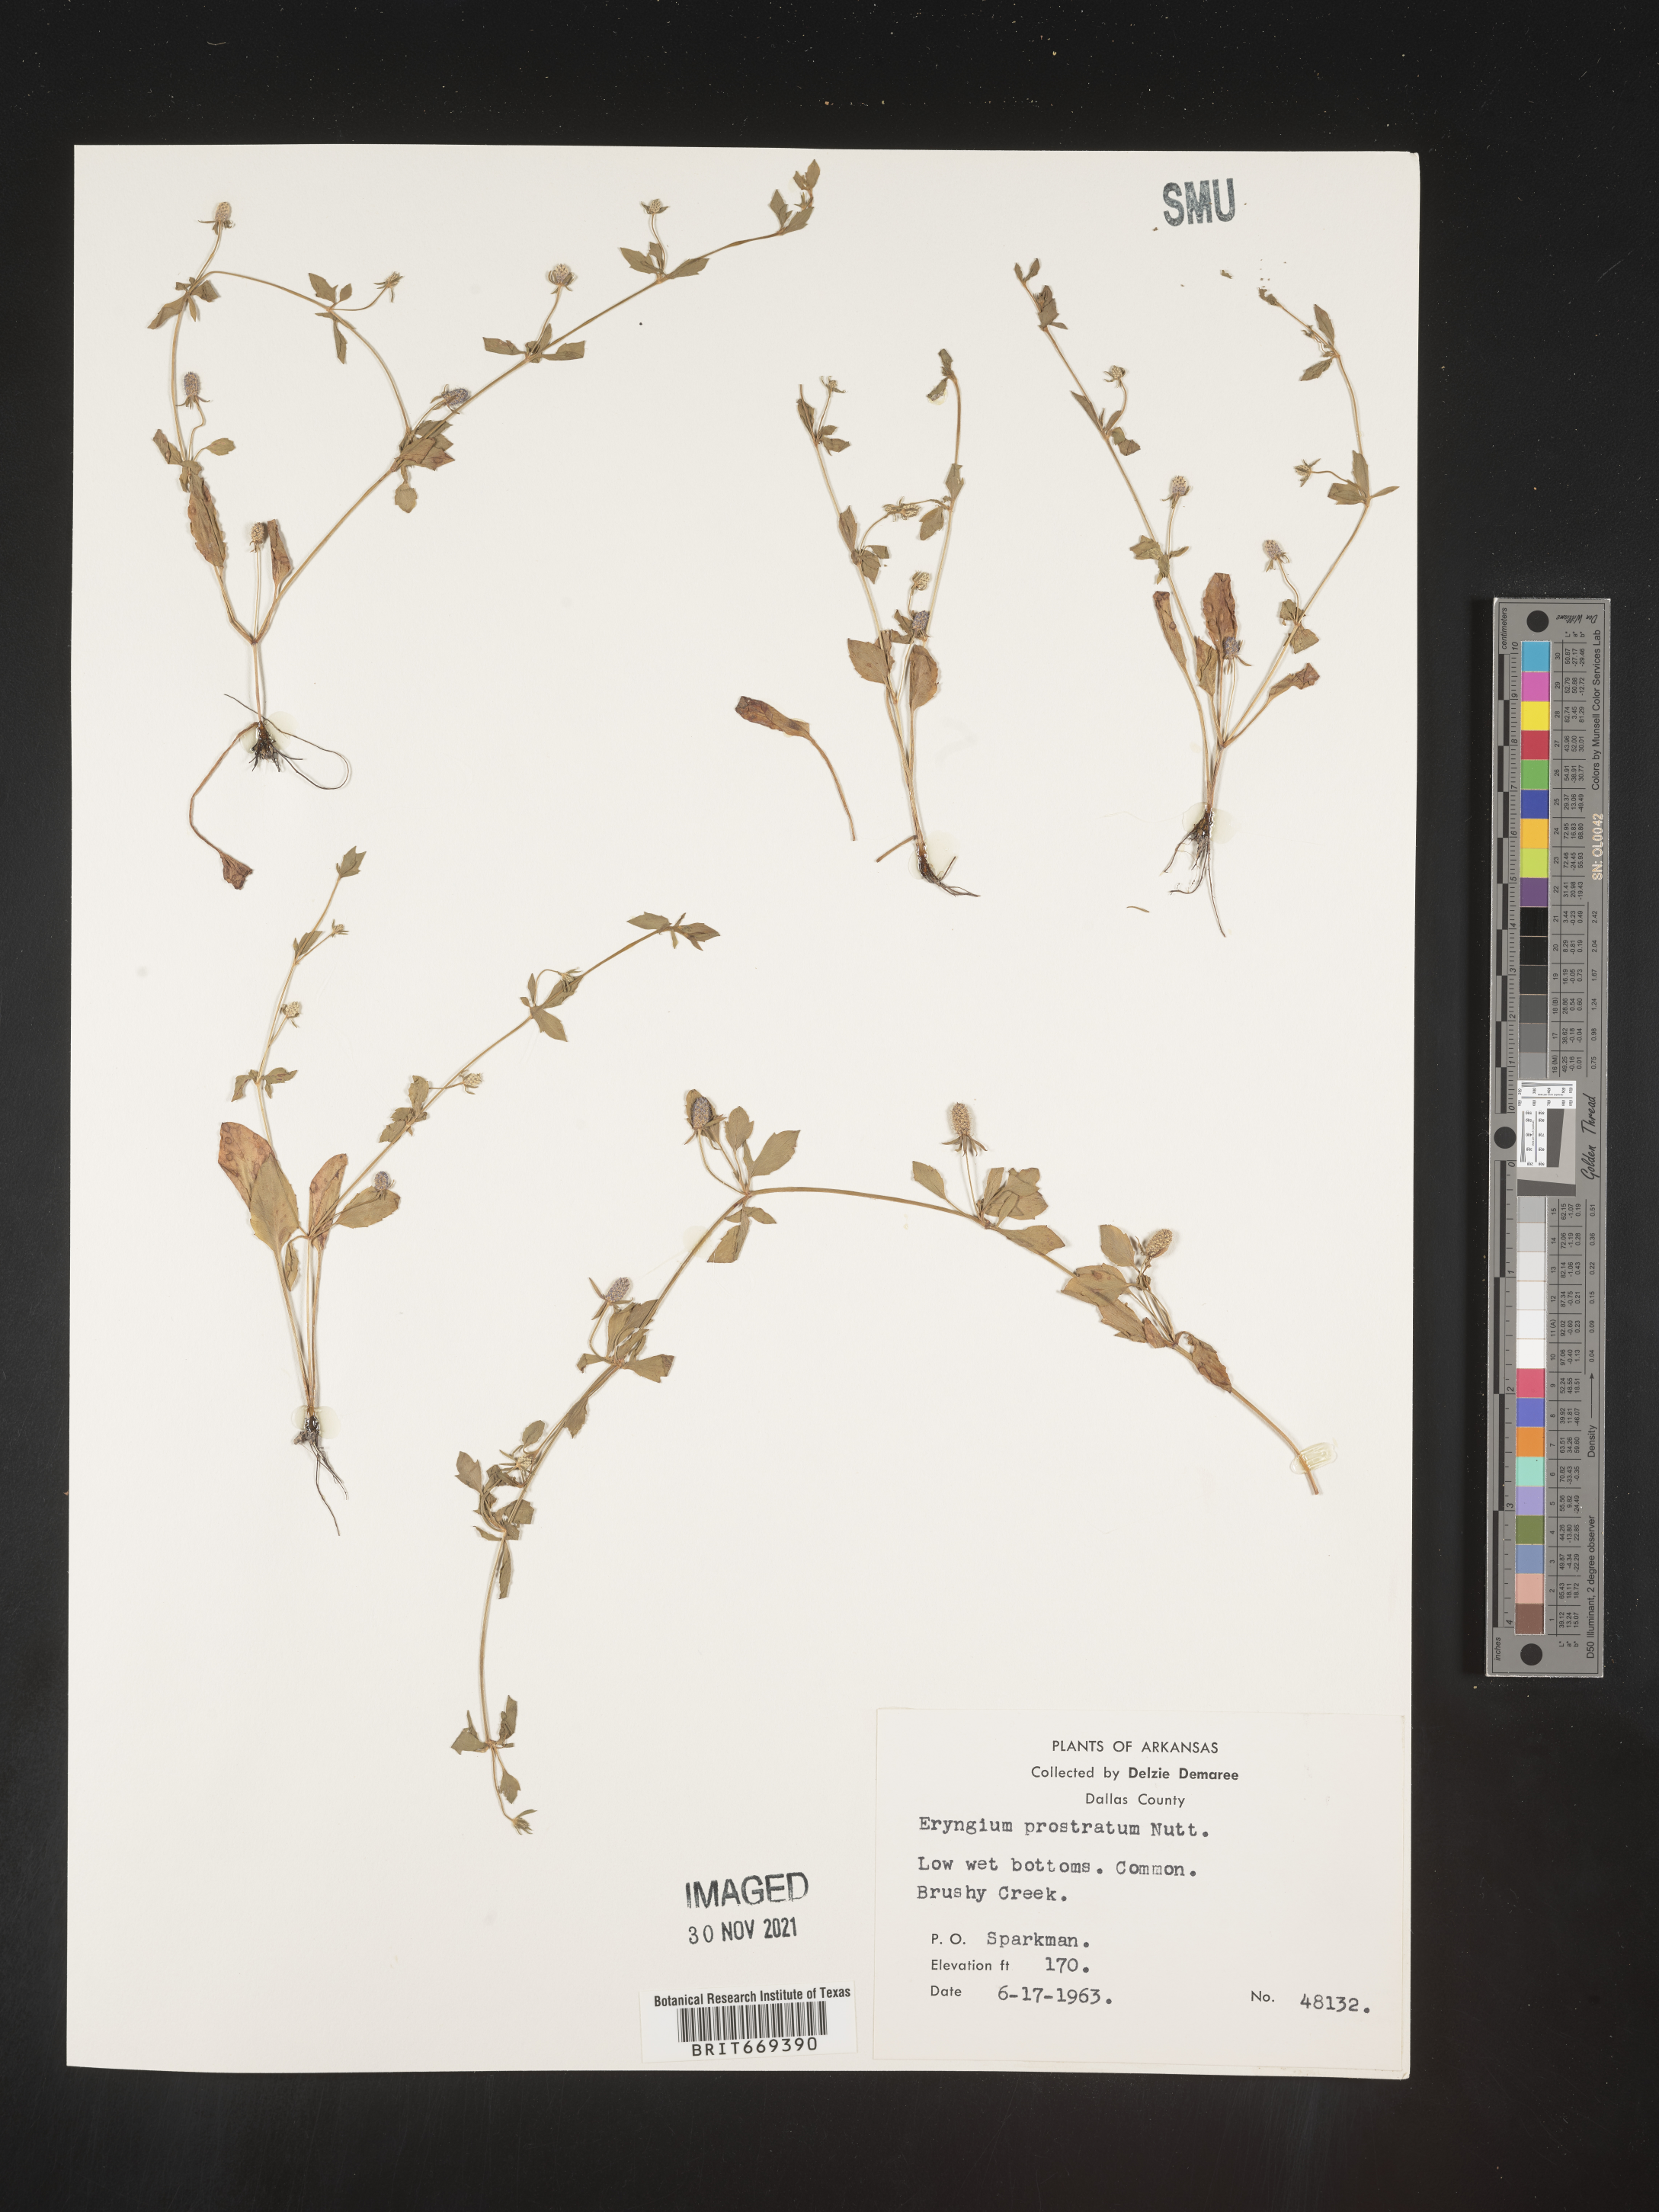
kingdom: Plantae
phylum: Tracheophyta
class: Magnoliopsida
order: Apiales
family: Apiaceae
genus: Eryngium
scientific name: Eryngium prostratum
